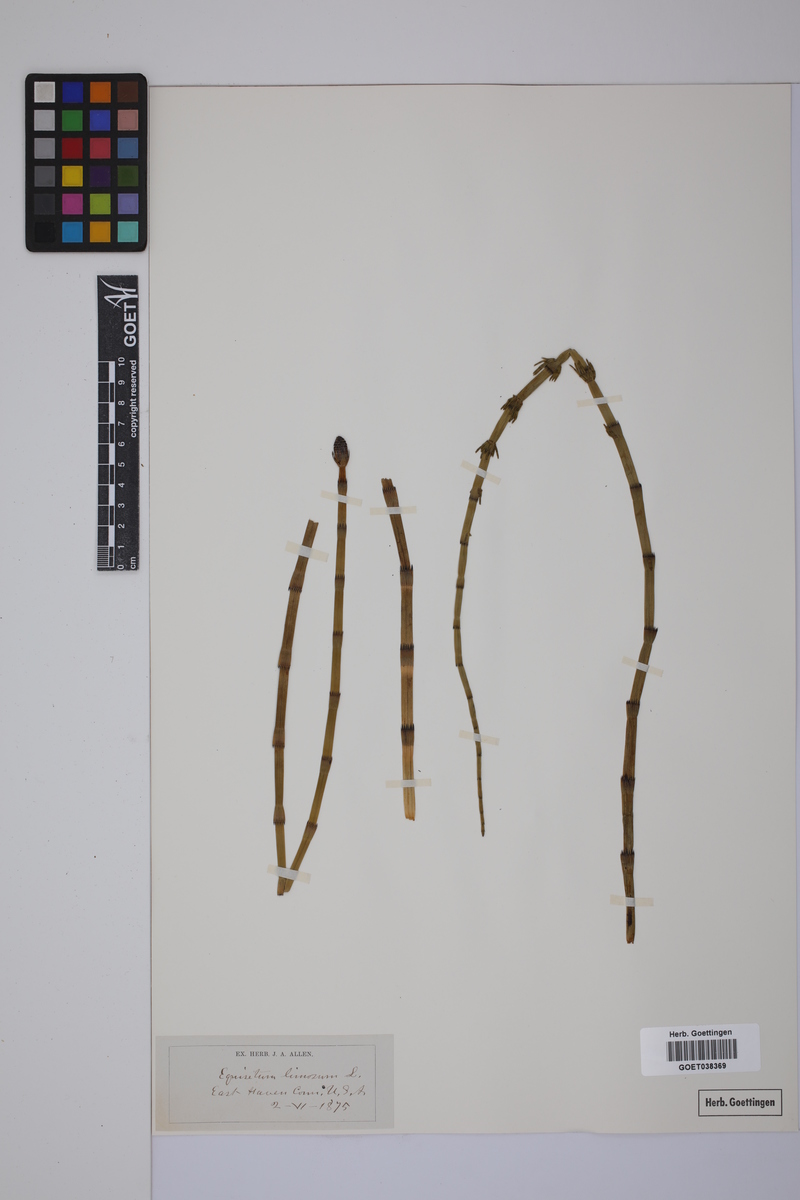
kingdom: Plantae
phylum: Tracheophyta
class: Polypodiopsida
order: Equisetales
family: Equisetaceae
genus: Equisetum
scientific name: Equisetum fluviatile
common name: Water horsetail
